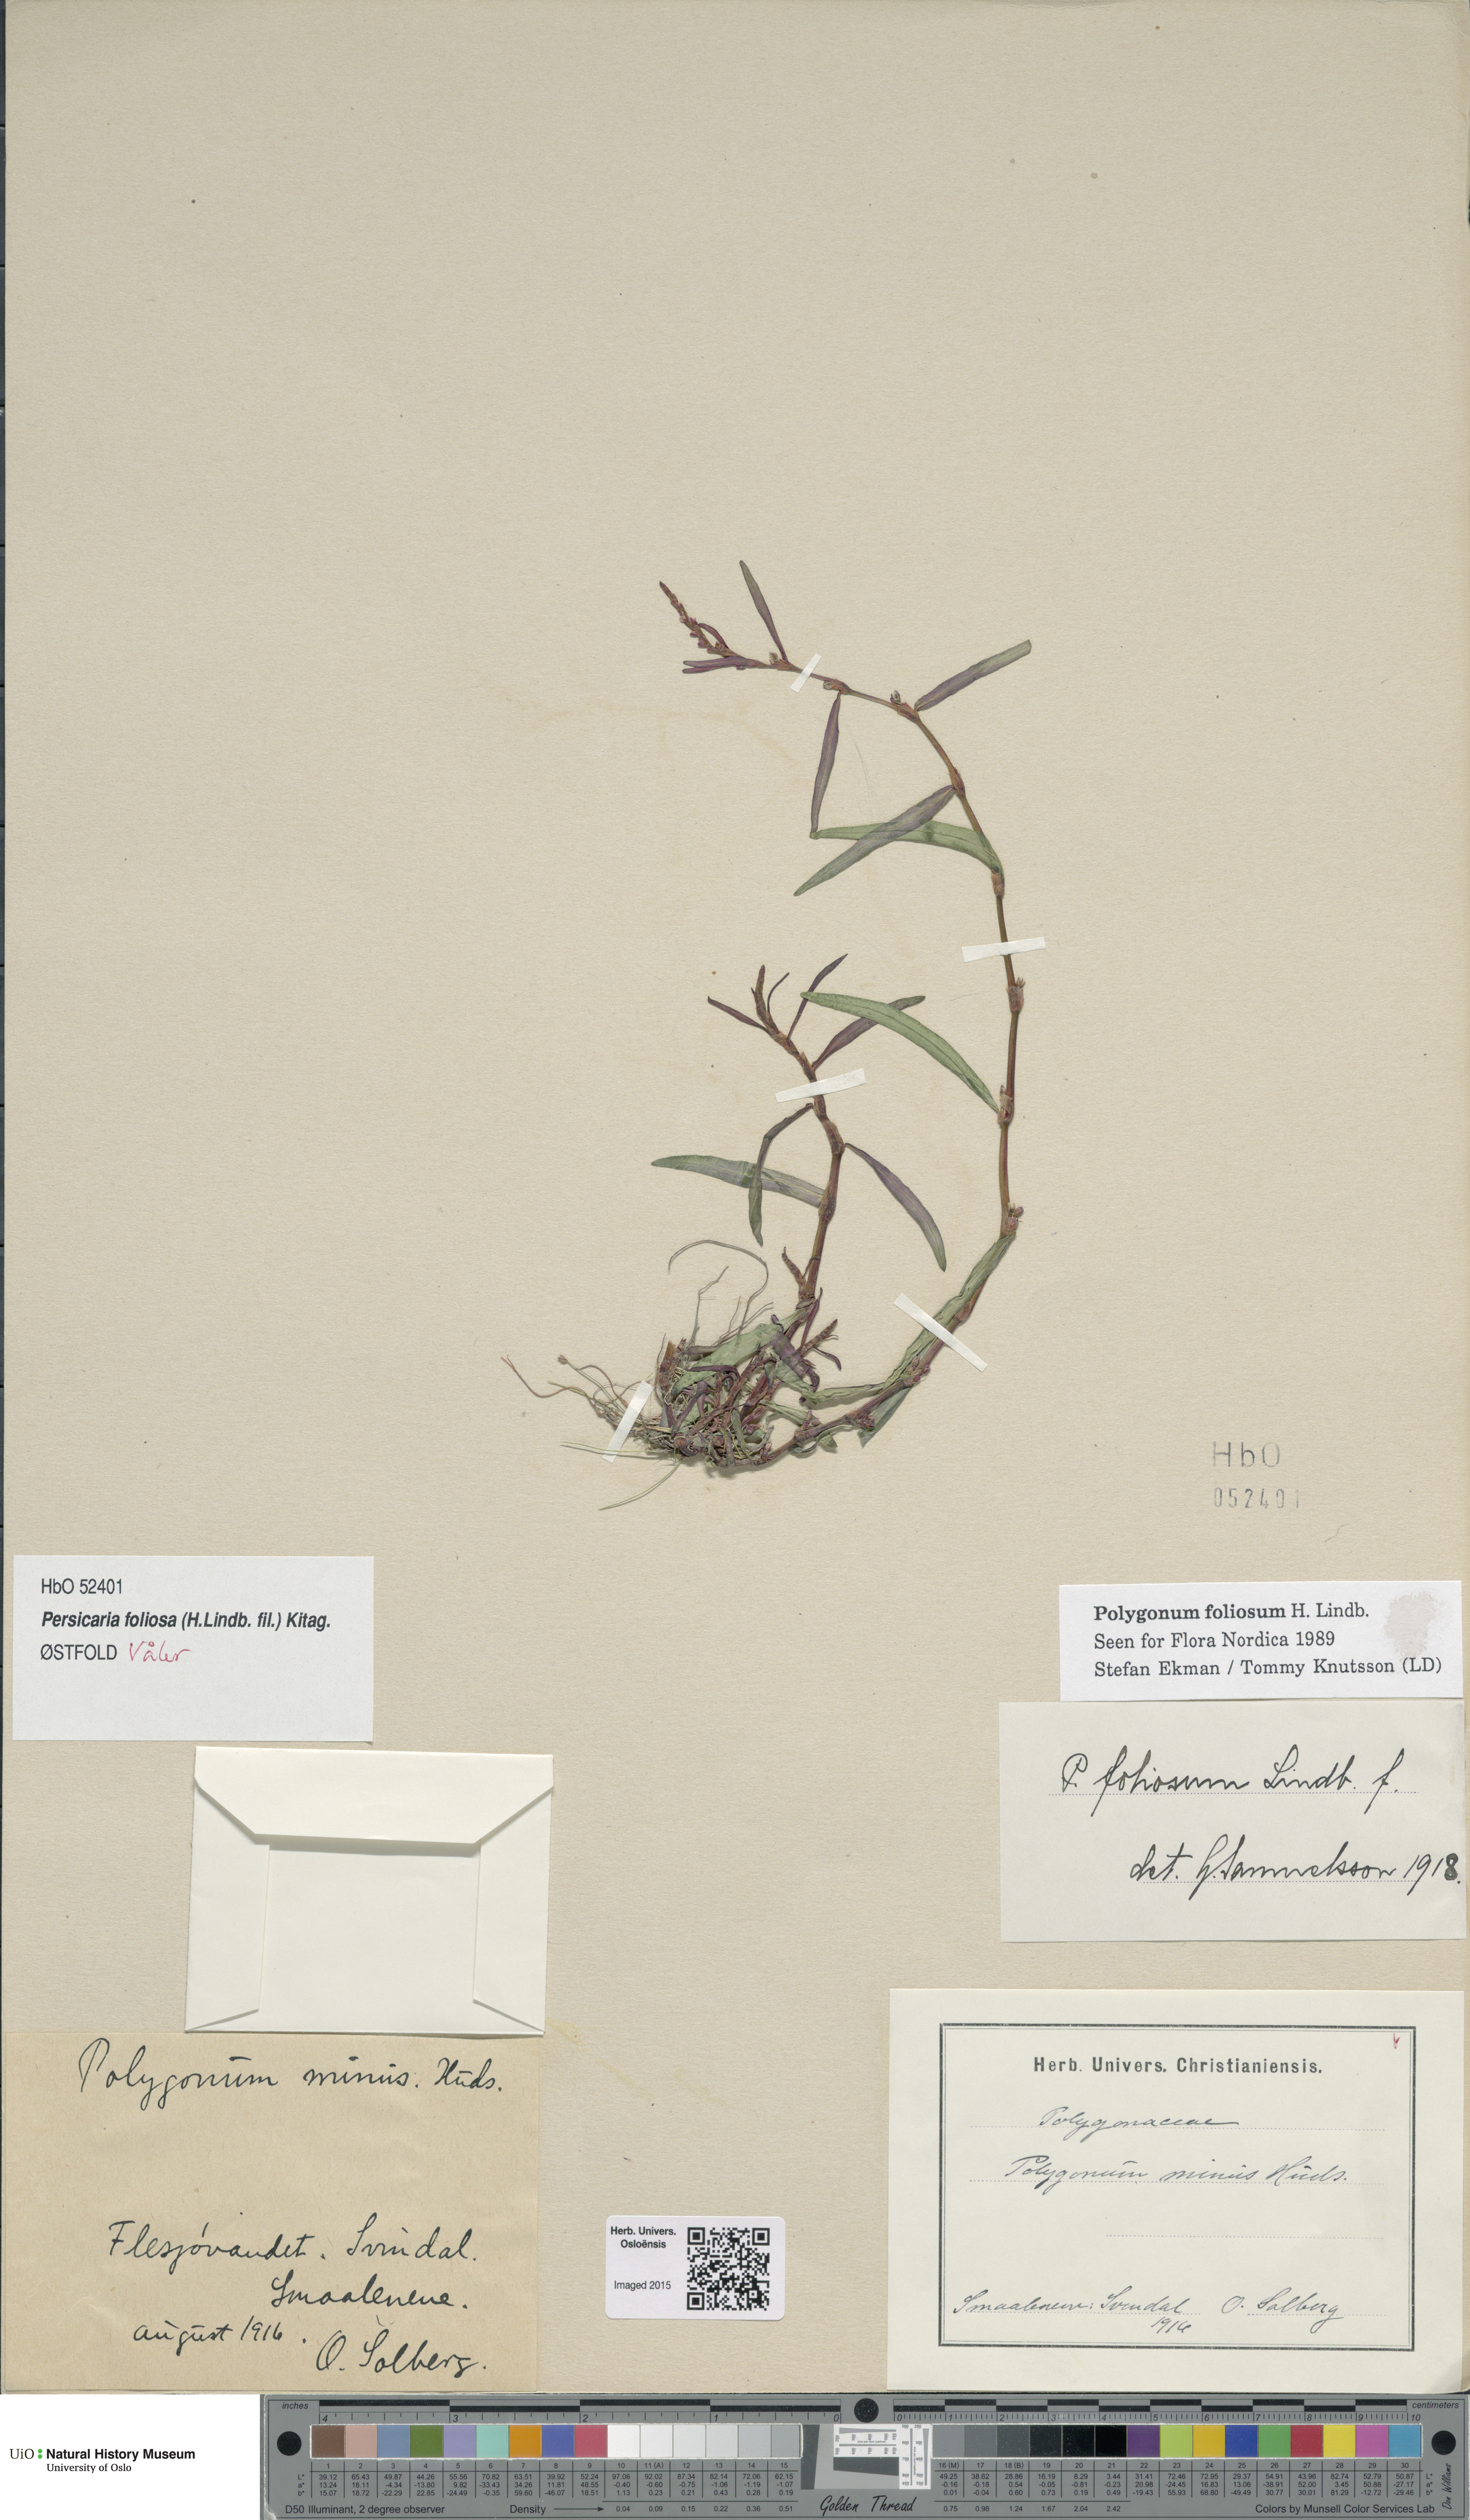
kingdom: Plantae
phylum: Tracheophyta
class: Magnoliopsida
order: Caryophyllales
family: Polygonaceae
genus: Persicaria
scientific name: Persicaria foliosa
